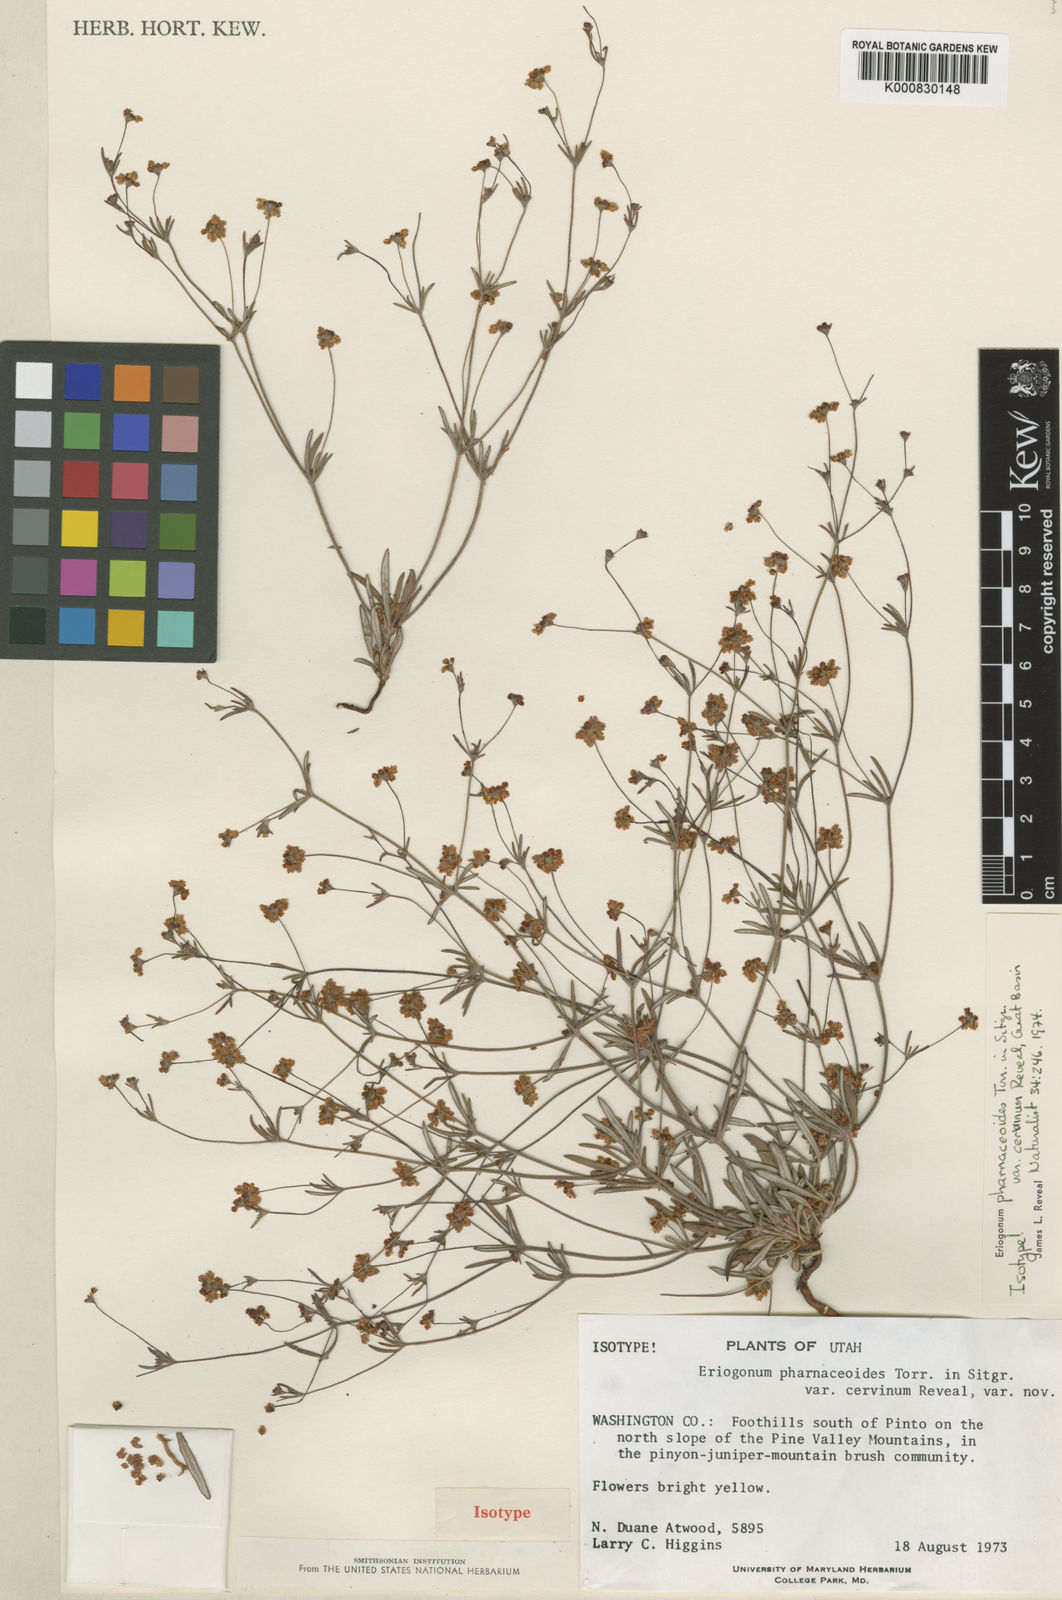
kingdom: Plantae
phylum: Tracheophyta
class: Magnoliopsida
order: Caryophyllales
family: Polygonaceae
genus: Eriogonum
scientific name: Eriogonum pharnaceoides
